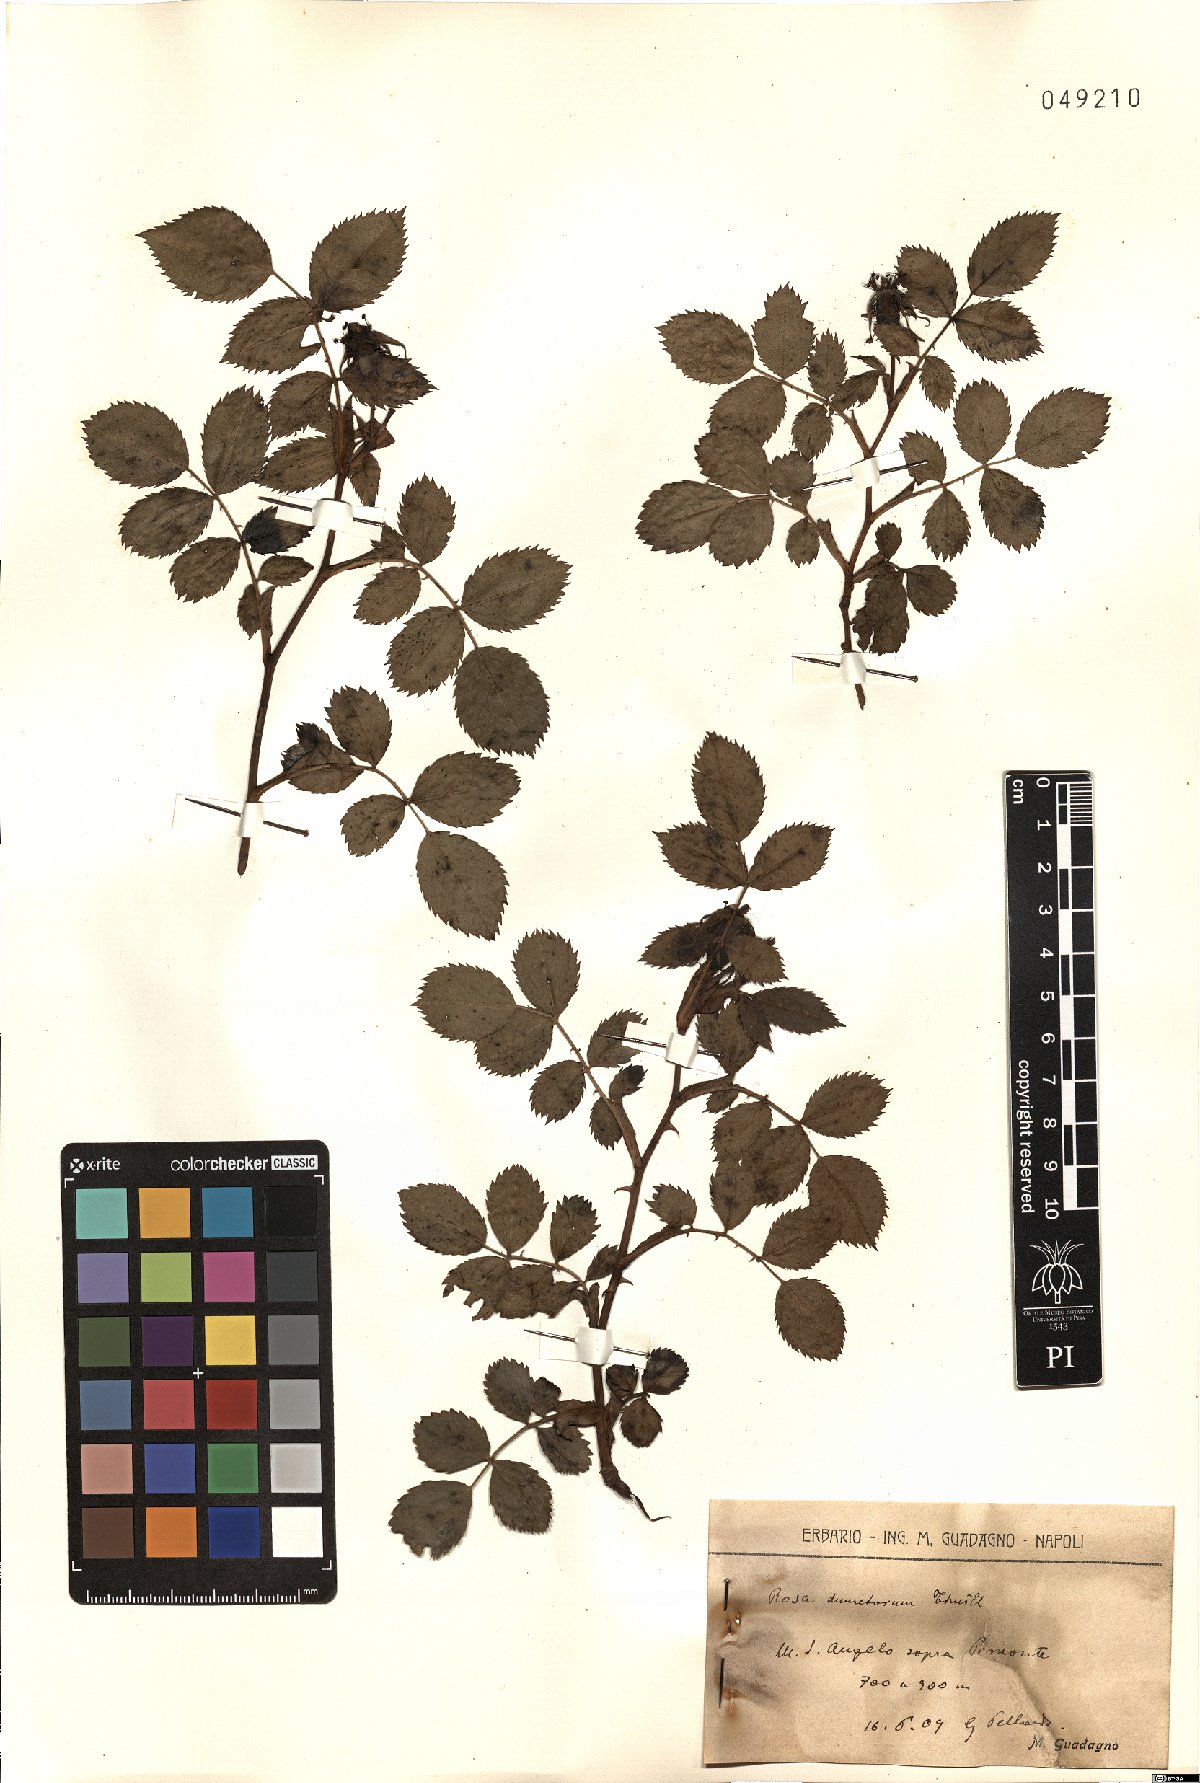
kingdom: Plantae
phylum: Tracheophyta
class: Magnoliopsida
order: Rosales
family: Rosaceae
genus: Rosa
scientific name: Rosa corymbifera
